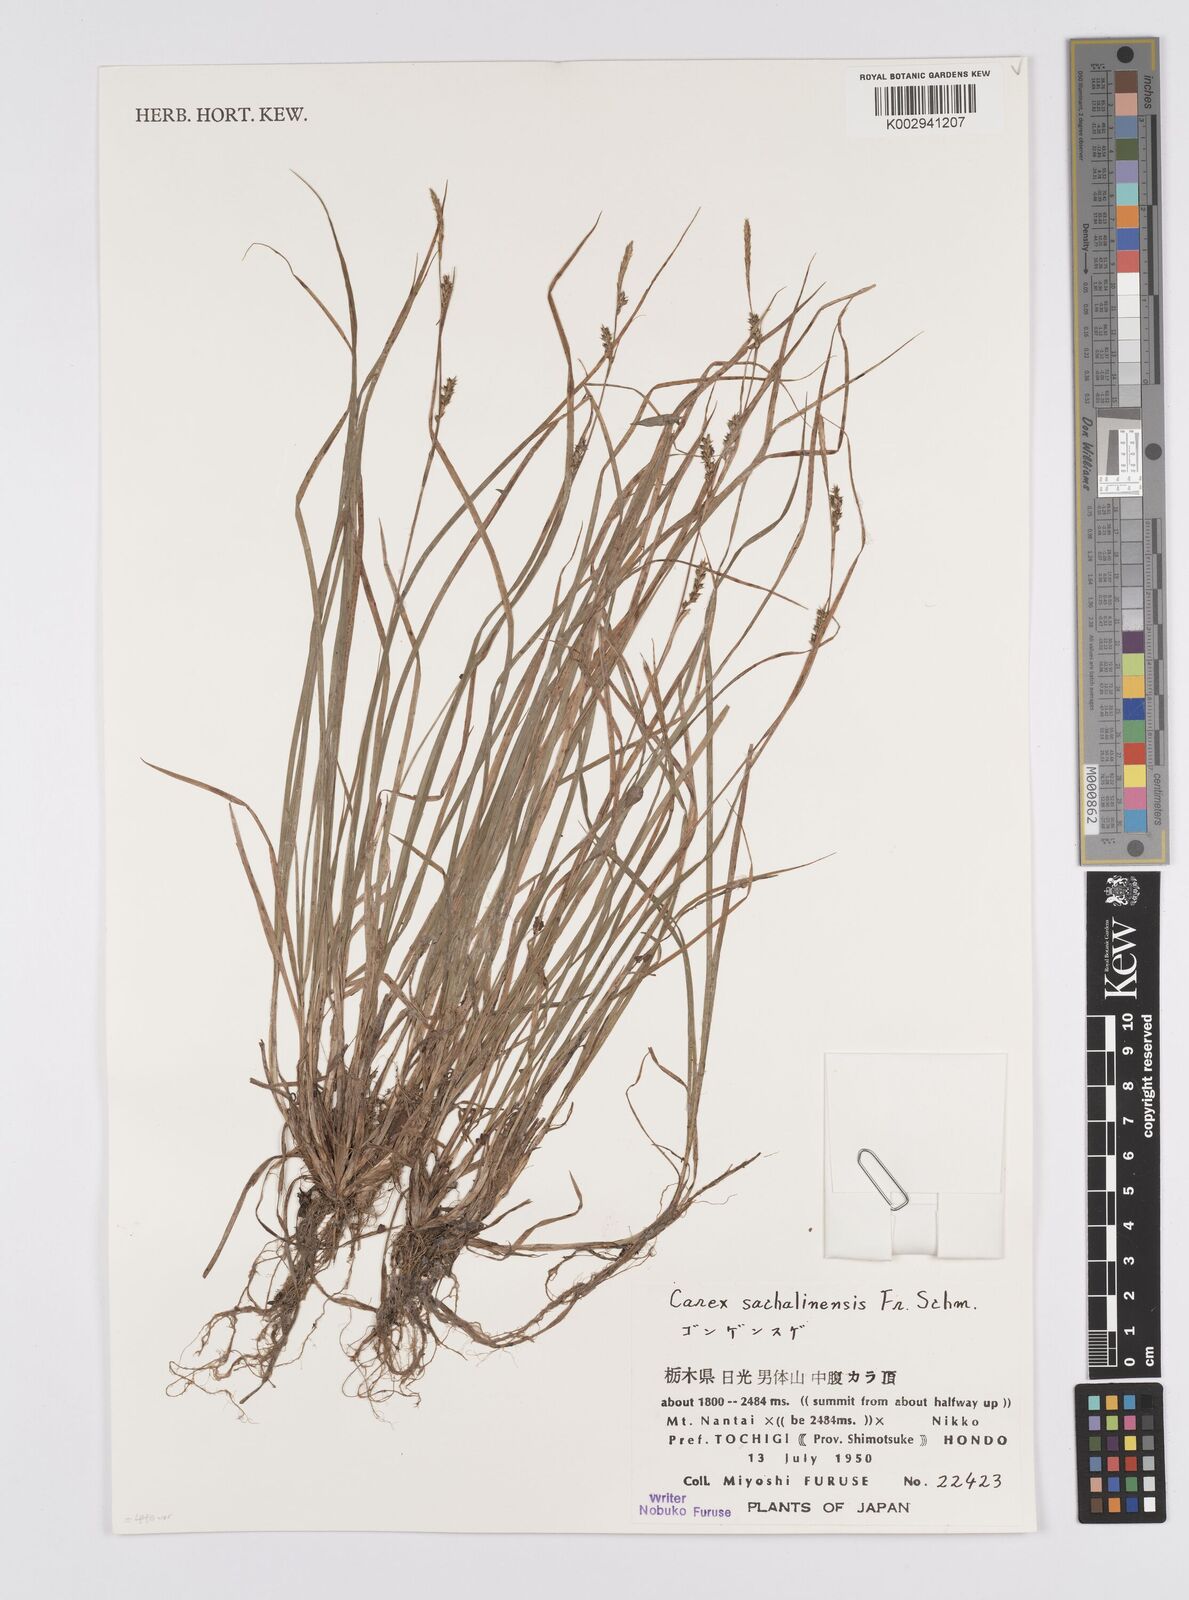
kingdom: Plantae
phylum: Tracheophyta
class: Liliopsida
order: Poales
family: Cyperaceae
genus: Carex
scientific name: Carex pisiformis
